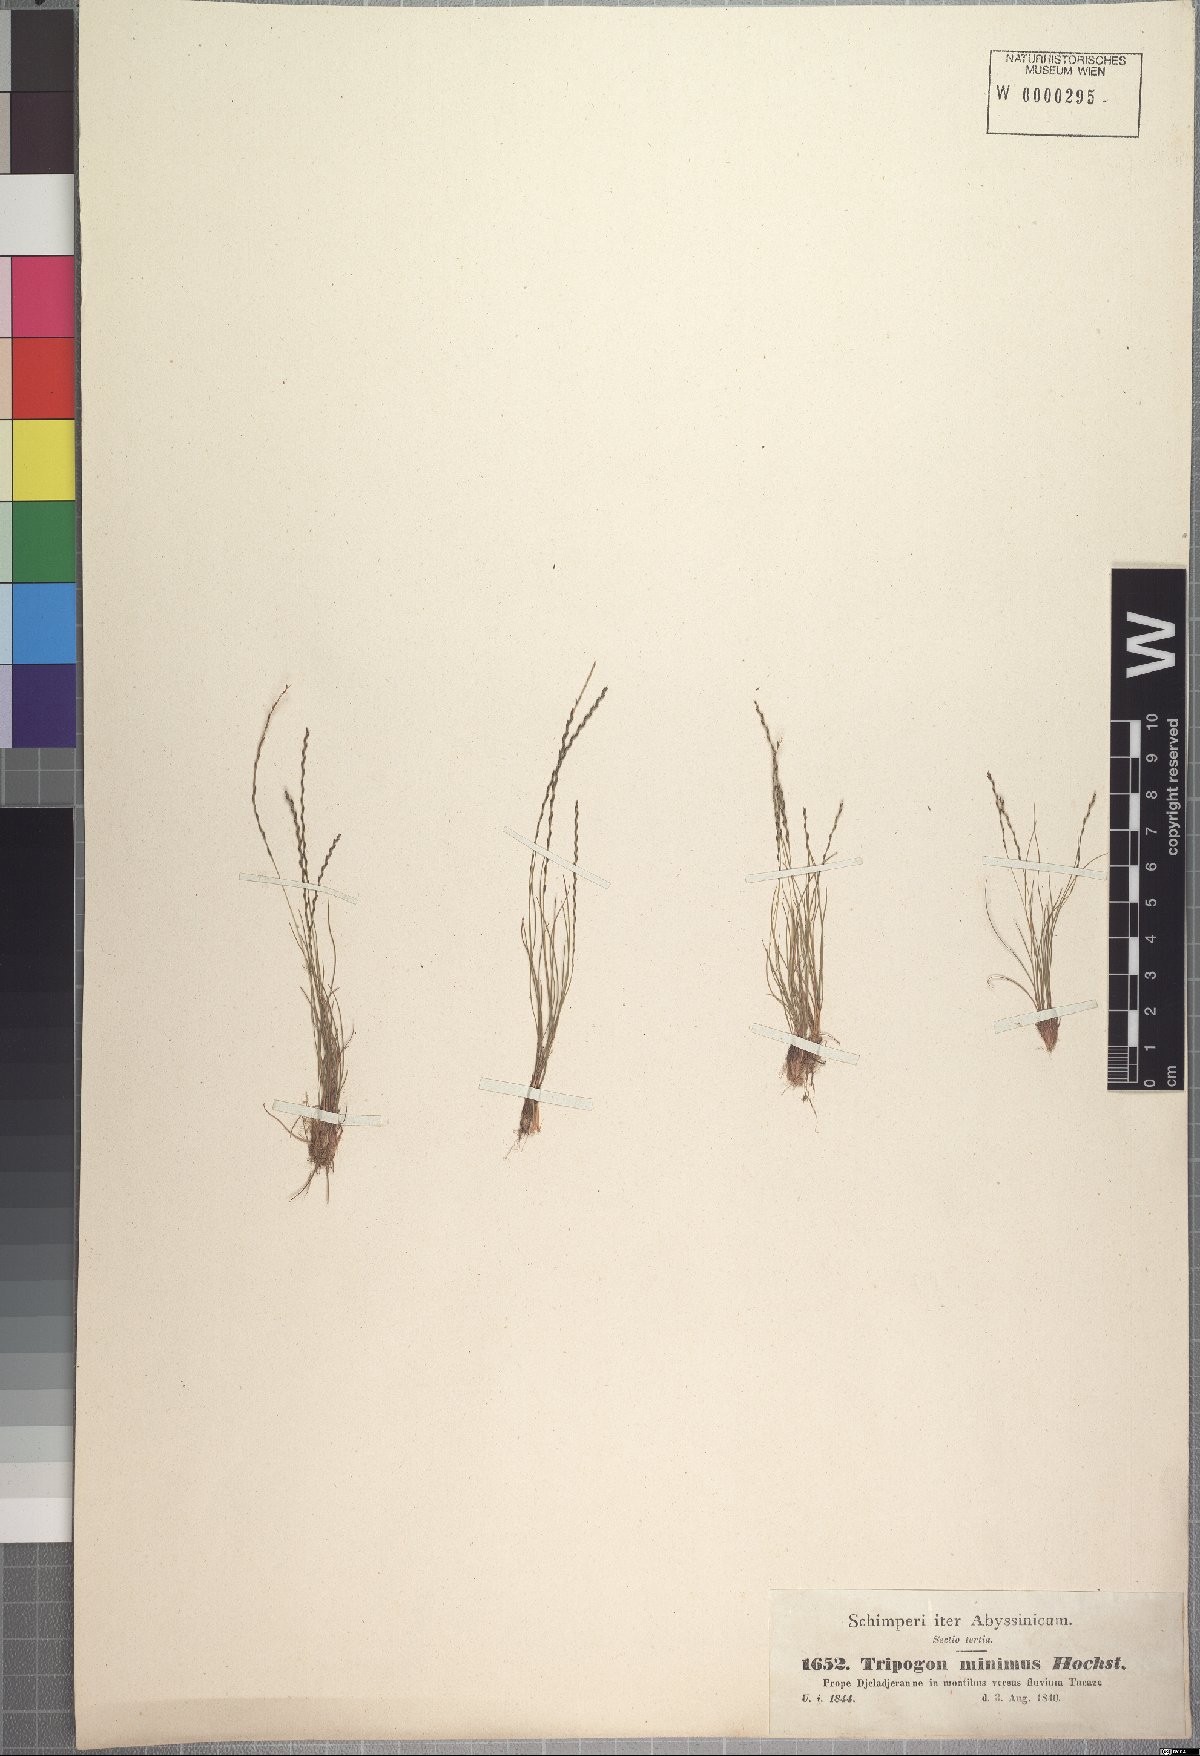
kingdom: Plantae
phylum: Tracheophyta
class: Liliopsida
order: Poales
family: Poaceae
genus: Tripogonella
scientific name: Tripogonella minima
